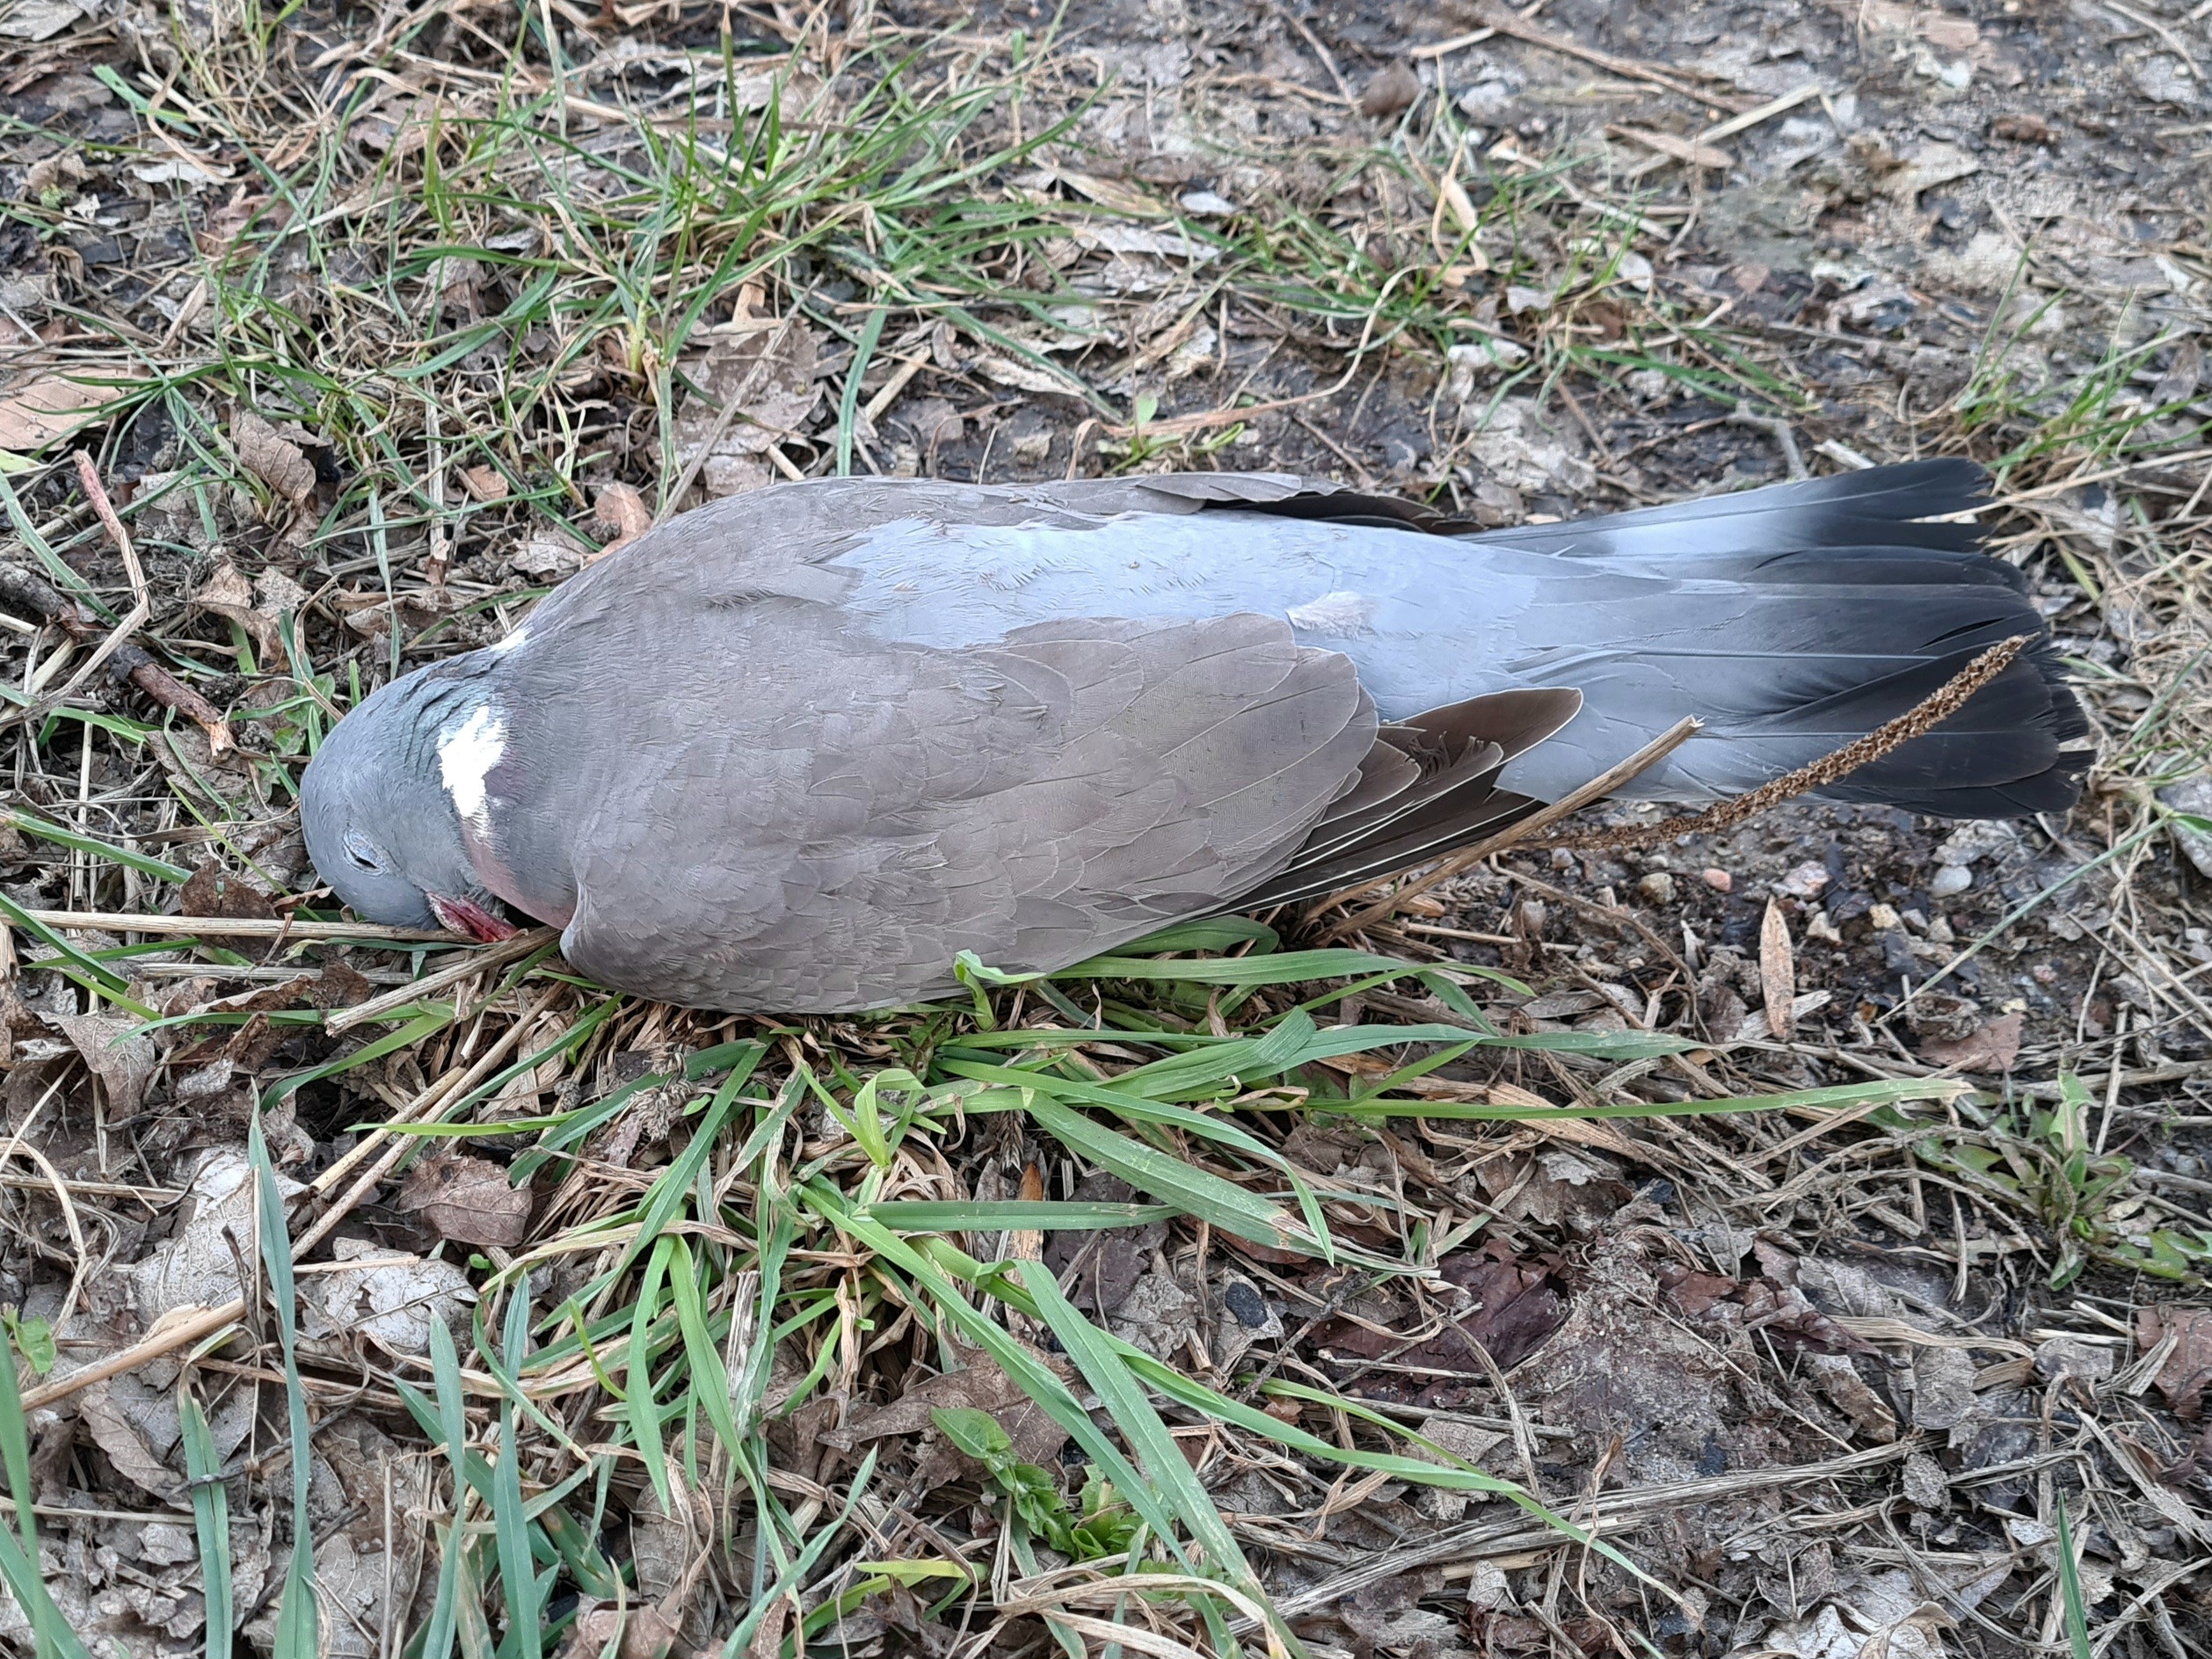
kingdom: Animalia
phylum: Chordata
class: Aves
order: Columbiformes
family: Columbidae
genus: Columba
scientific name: Columba palumbus
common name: Ringdue
